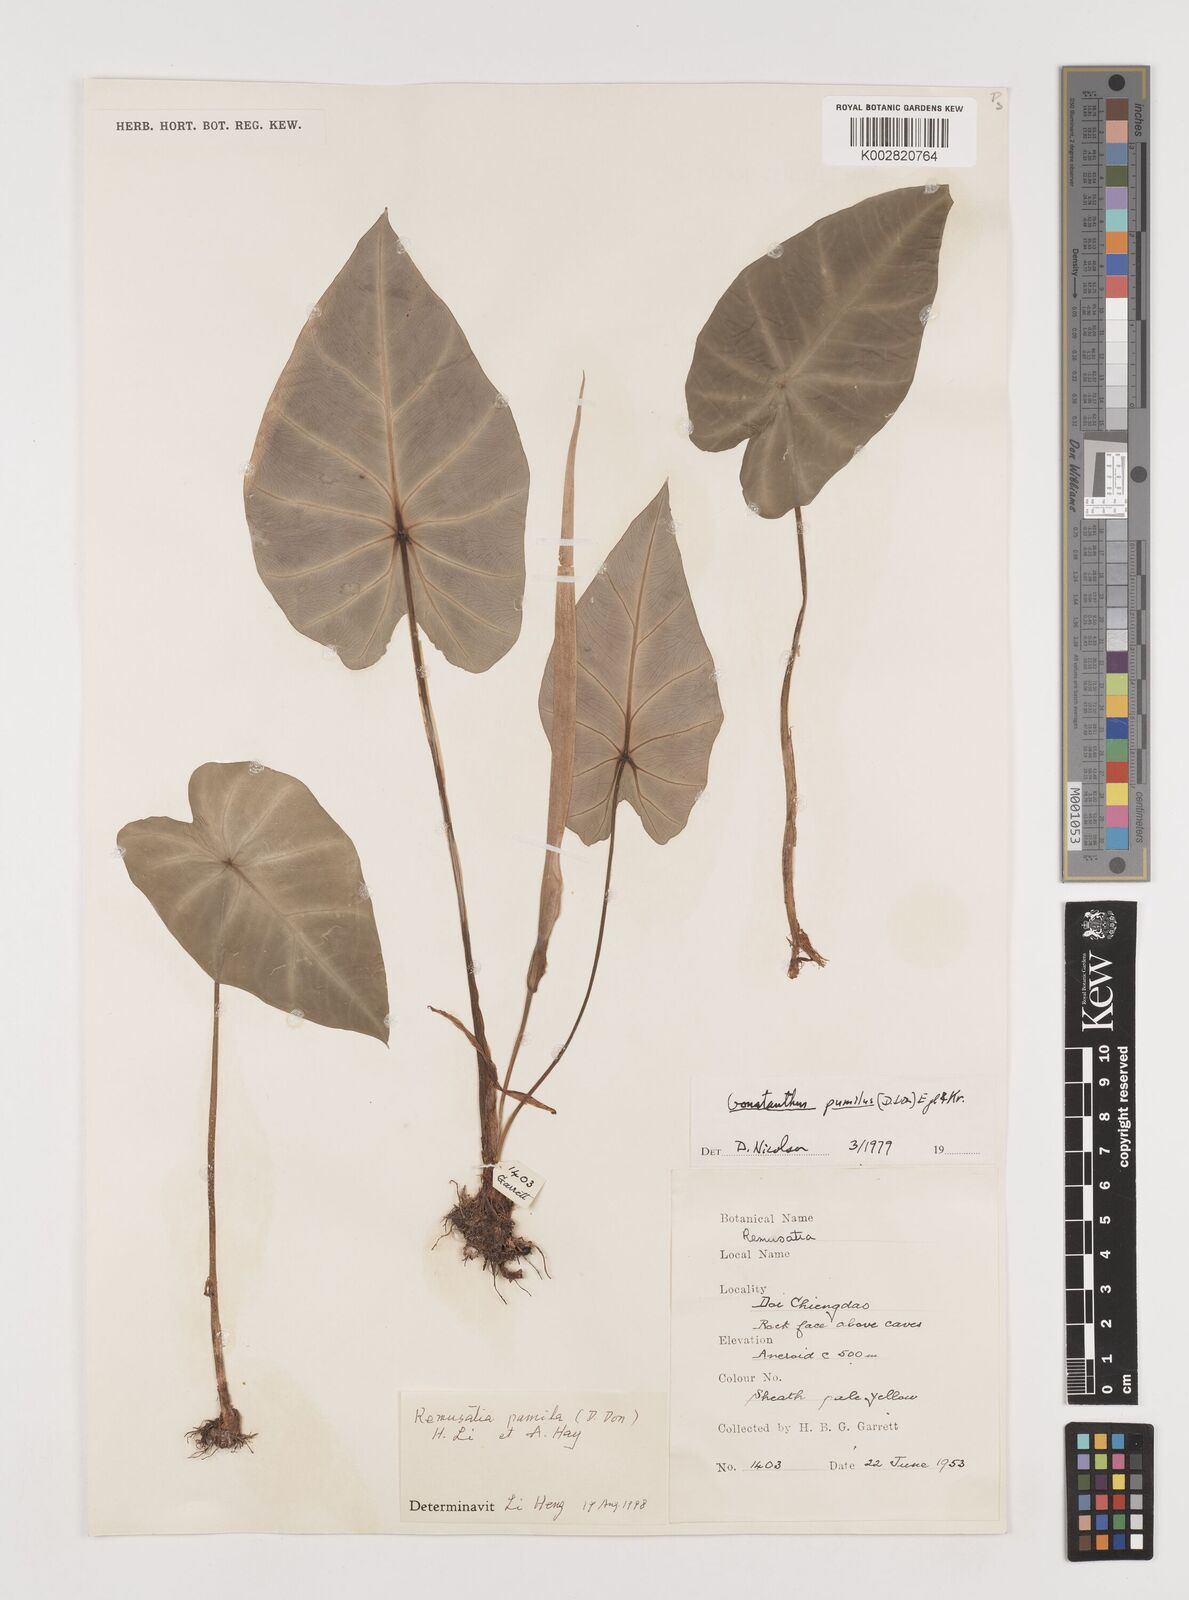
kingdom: Plantae
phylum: Tracheophyta
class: Liliopsida
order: Alismatales
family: Araceae
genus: Remusatia
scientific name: Remusatia pumila
